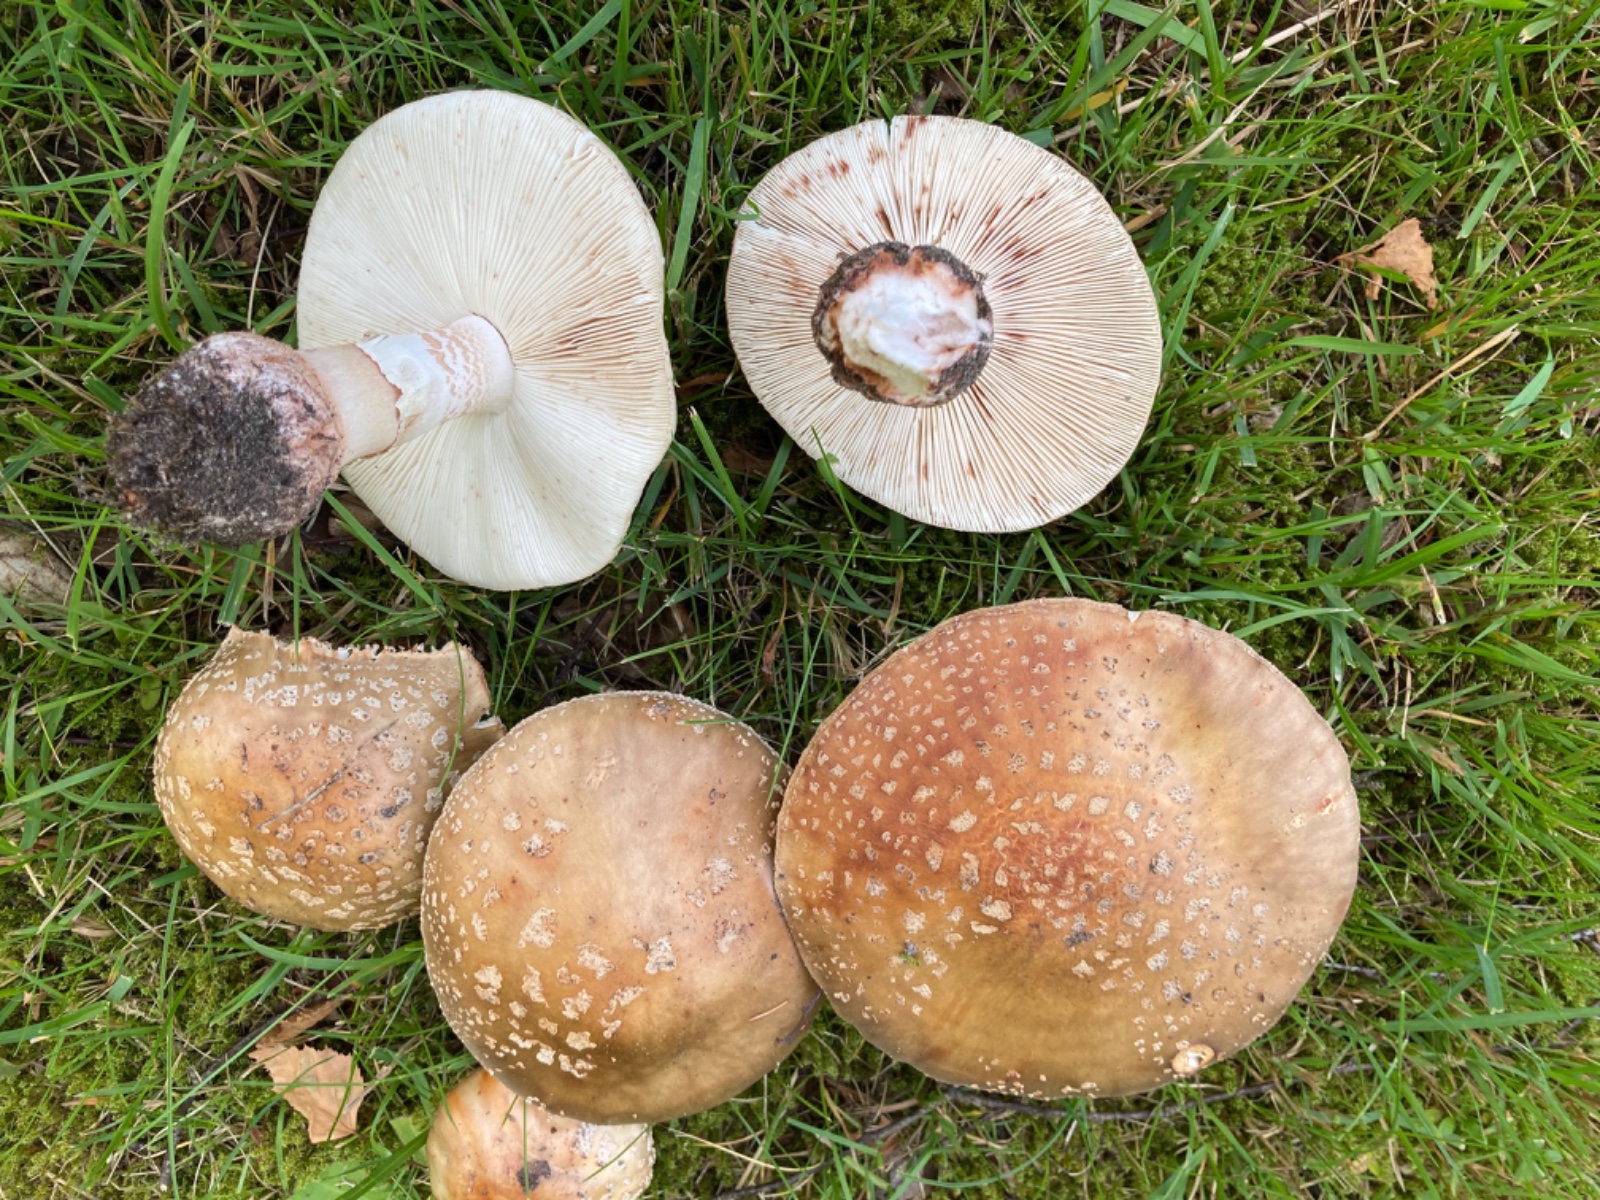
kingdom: Fungi
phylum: Basidiomycota
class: Agaricomycetes
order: Agaricales
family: Amanitaceae
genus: Amanita
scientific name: Amanita rubescens
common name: rødmende fluesvamp
